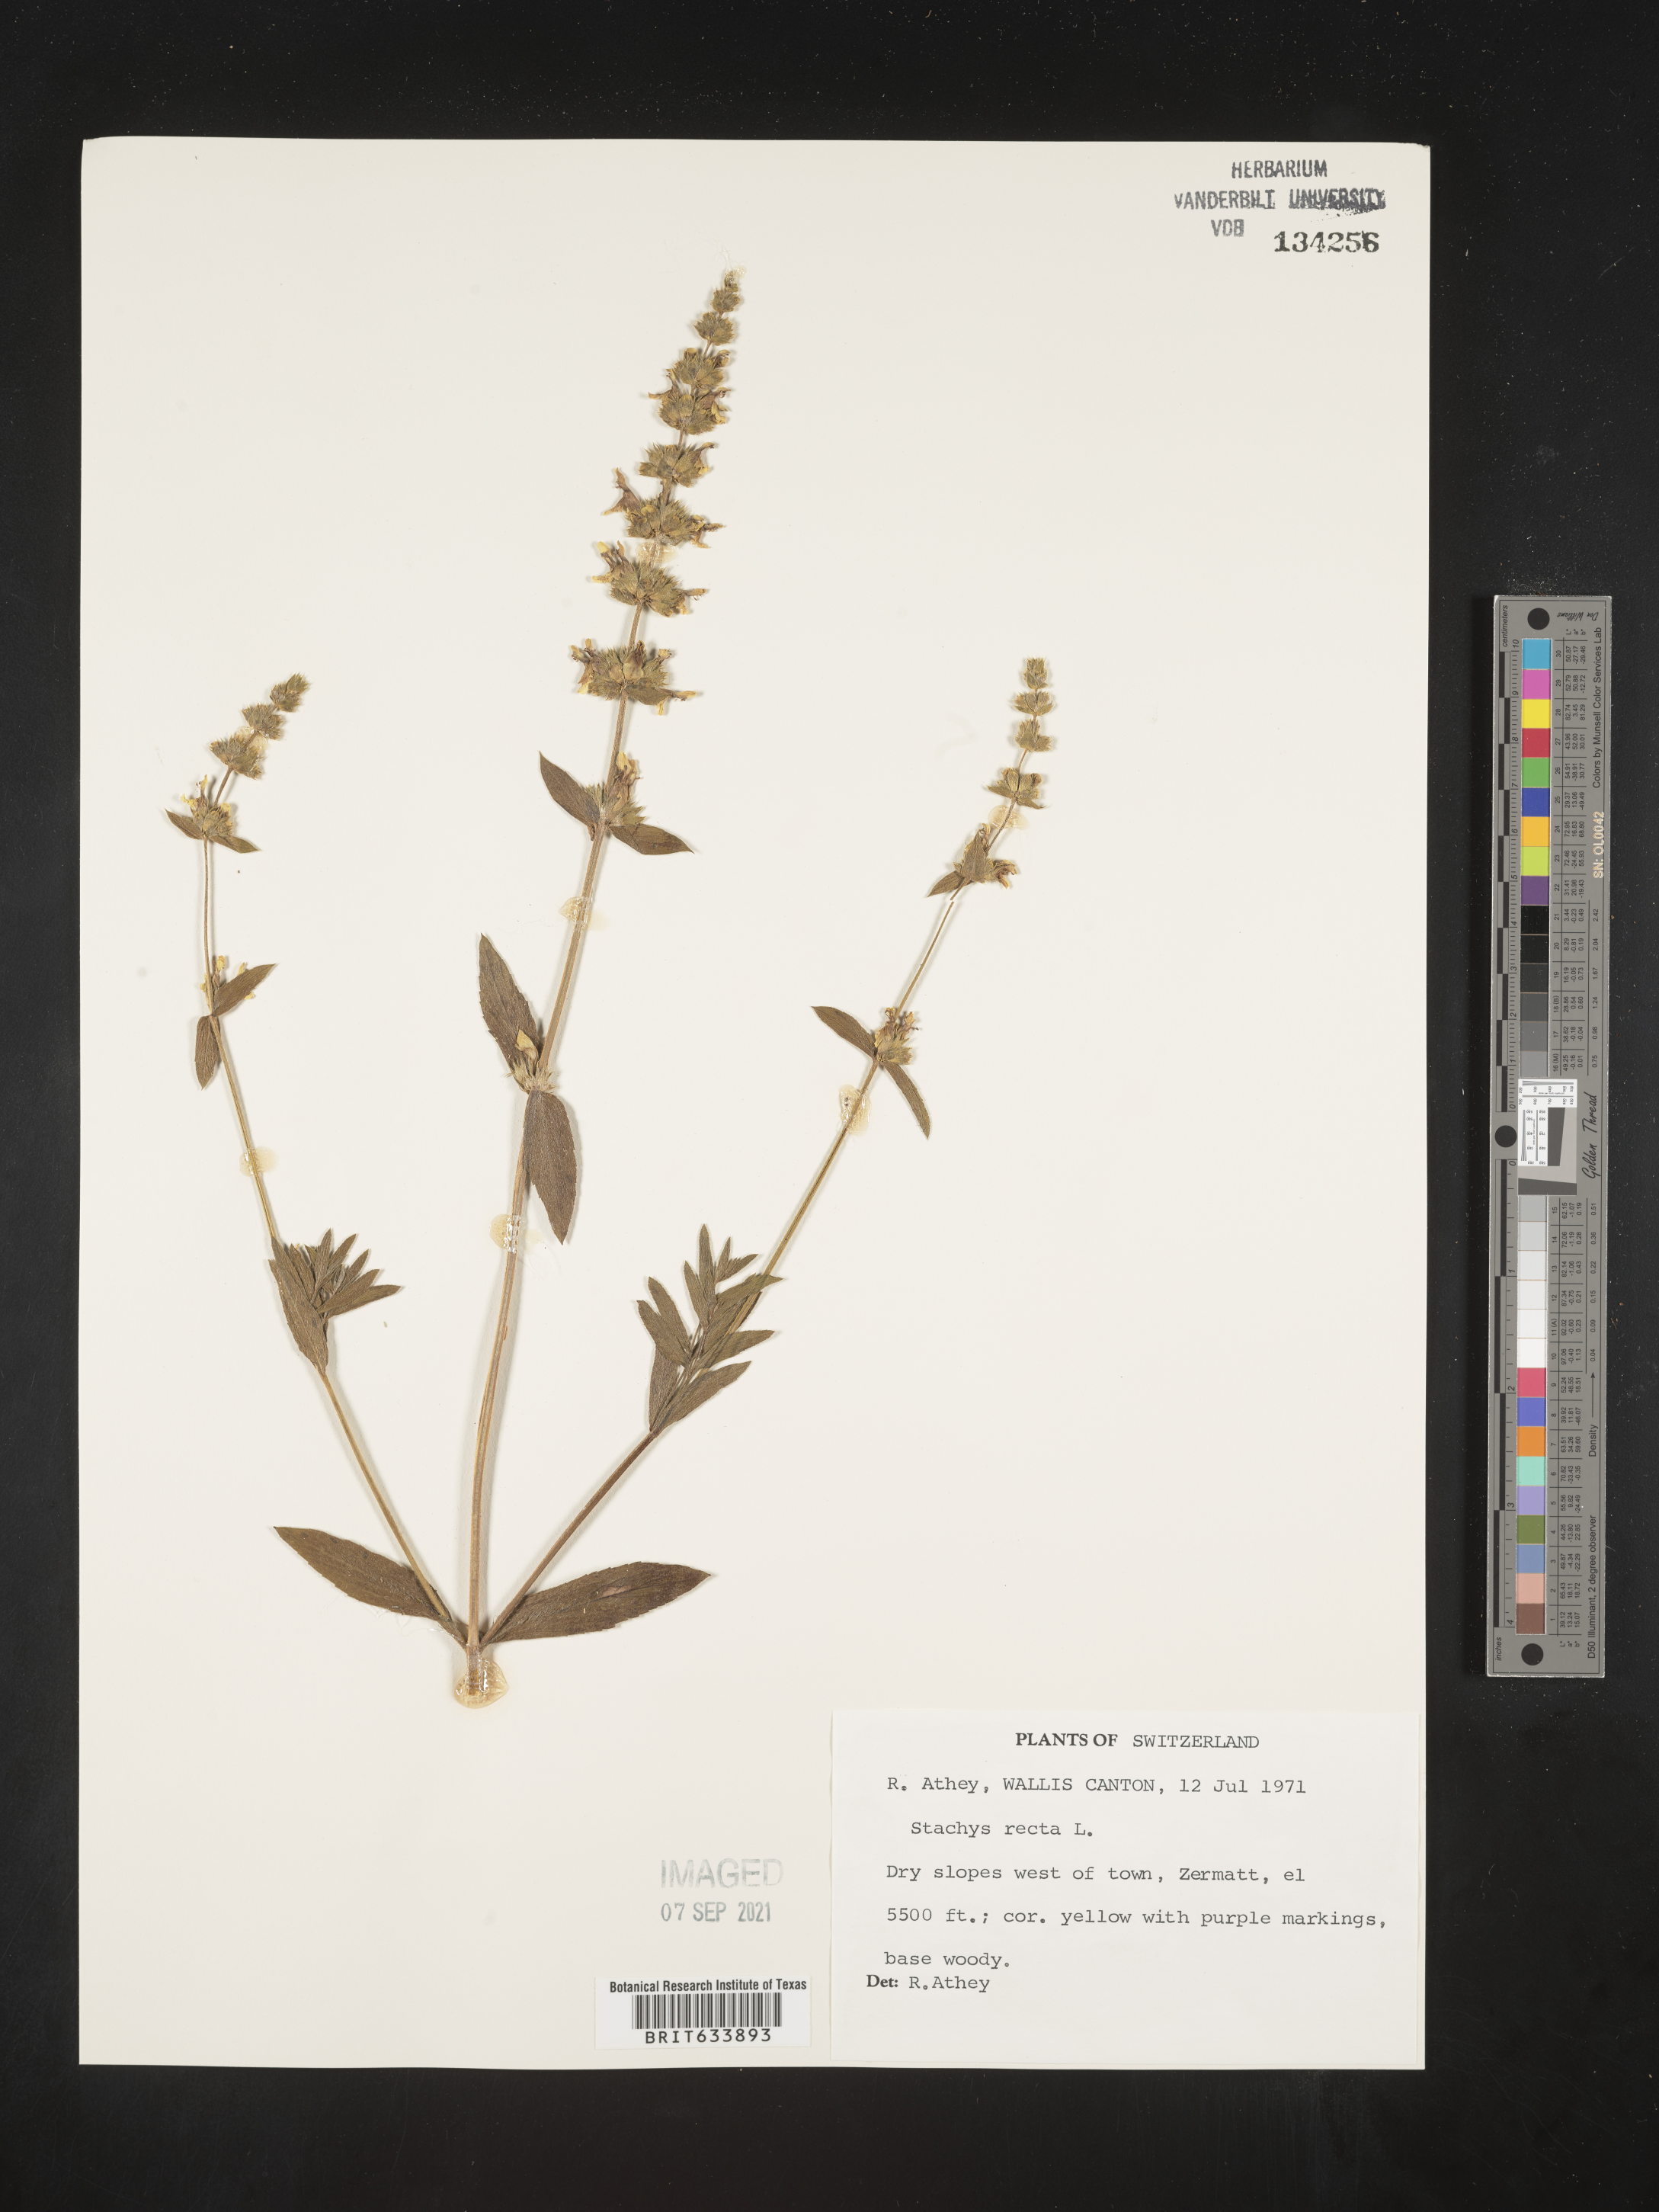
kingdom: Plantae
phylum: Tracheophyta
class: Magnoliopsida
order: Lamiales
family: Lamiaceae
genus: Stachys
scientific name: Stachys
